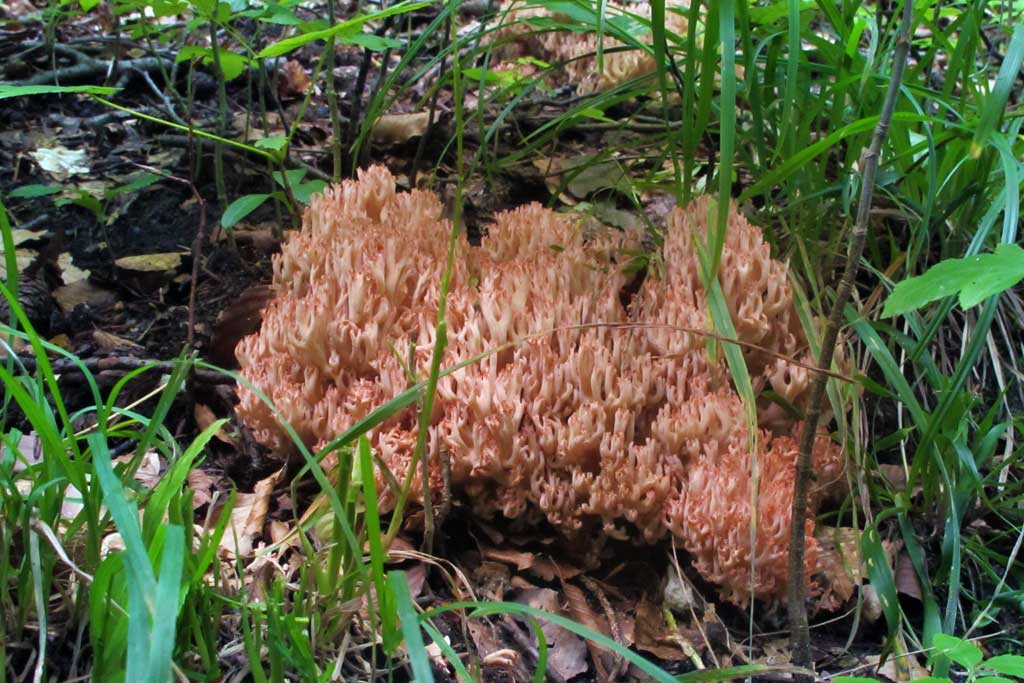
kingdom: Fungi
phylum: Basidiomycota
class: Agaricomycetes
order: Gomphales
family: Gomphaceae
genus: Ramaria
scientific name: Ramaria botrytis
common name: drue-koralsvamp
